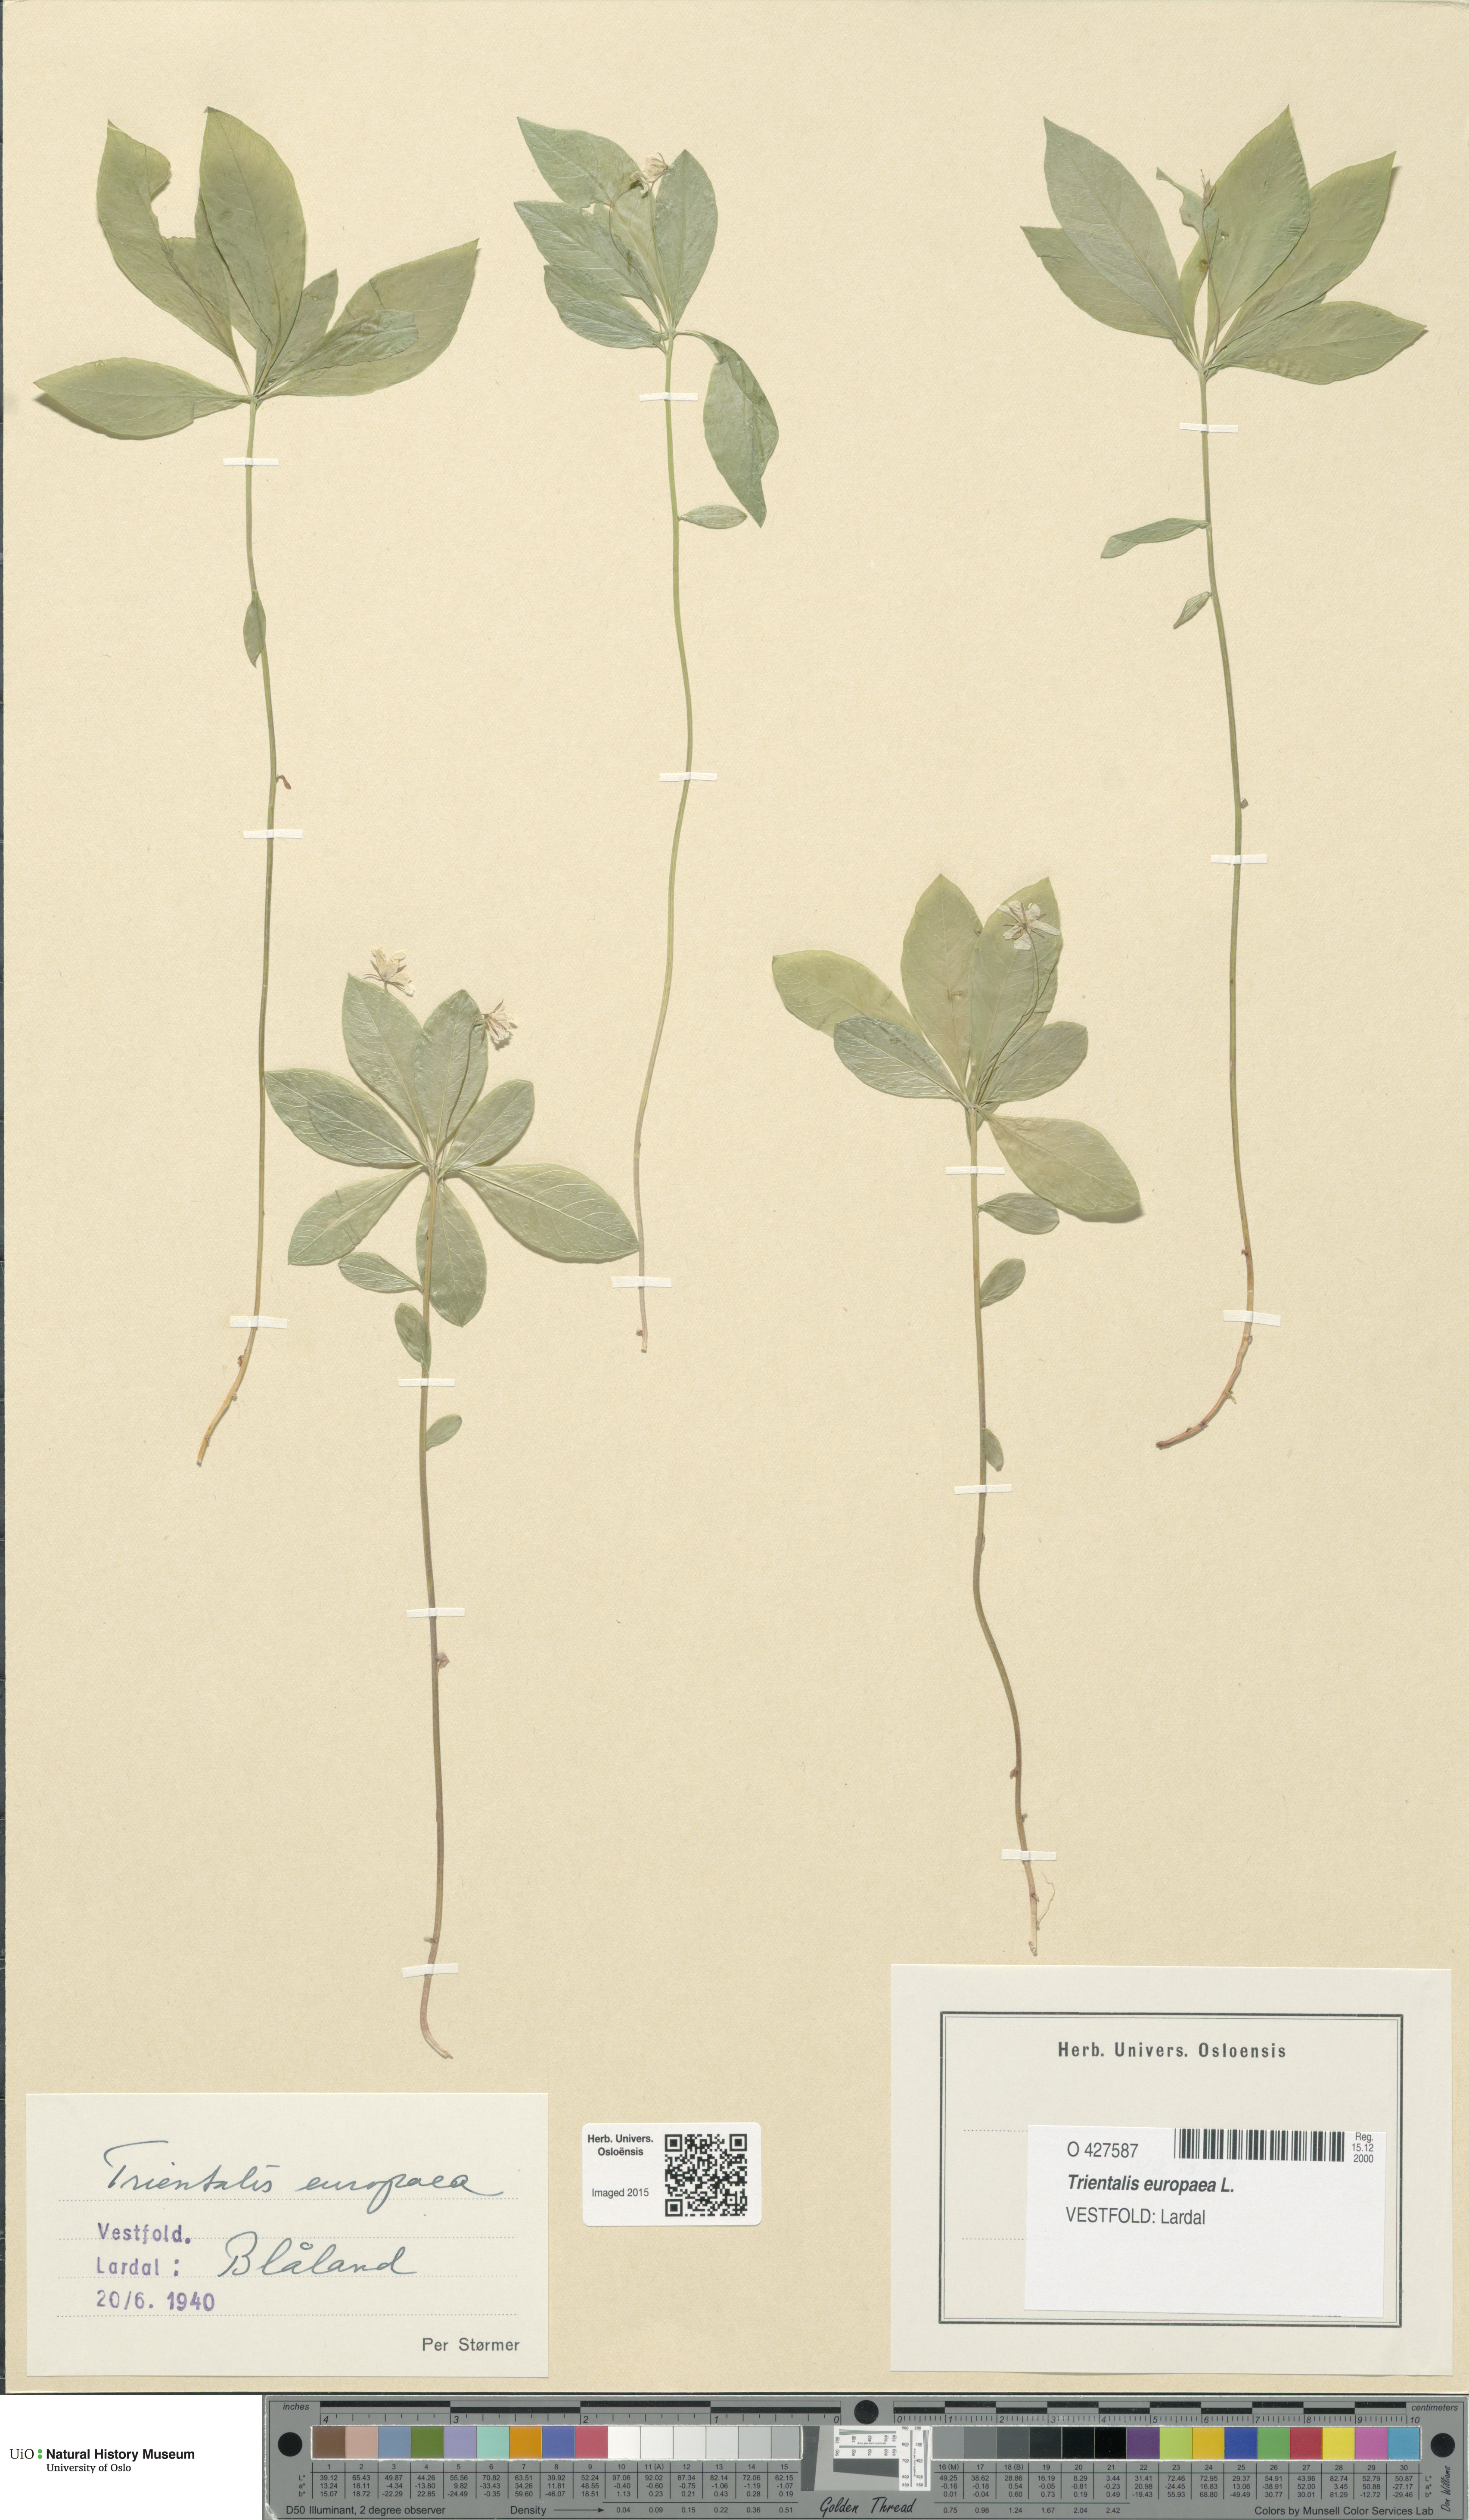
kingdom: Plantae
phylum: Tracheophyta
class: Magnoliopsida
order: Ericales
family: Primulaceae
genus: Lysimachia
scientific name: Lysimachia europaea
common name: Arctic starflower
